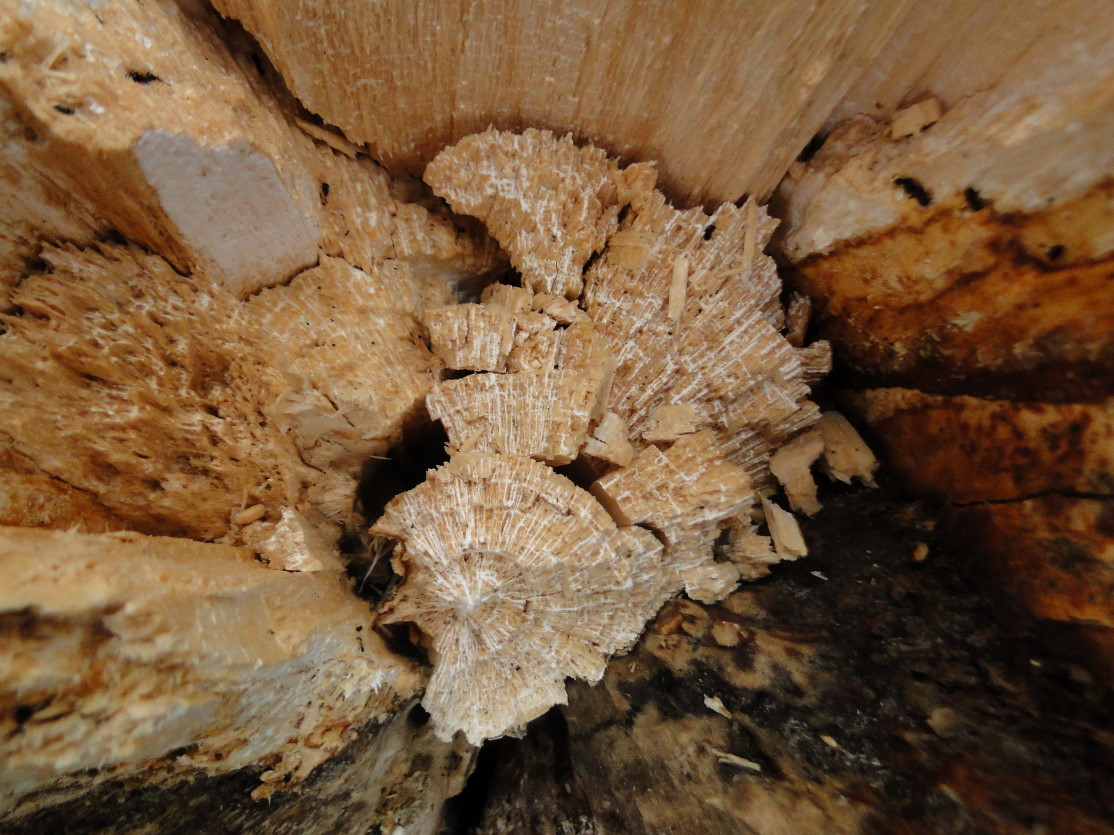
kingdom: Fungi
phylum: Basidiomycota
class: Agaricomycetes
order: Polyporales
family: Polyporaceae
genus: Trametes
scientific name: Trametes ochracea
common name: bæltet læderporesvamp
